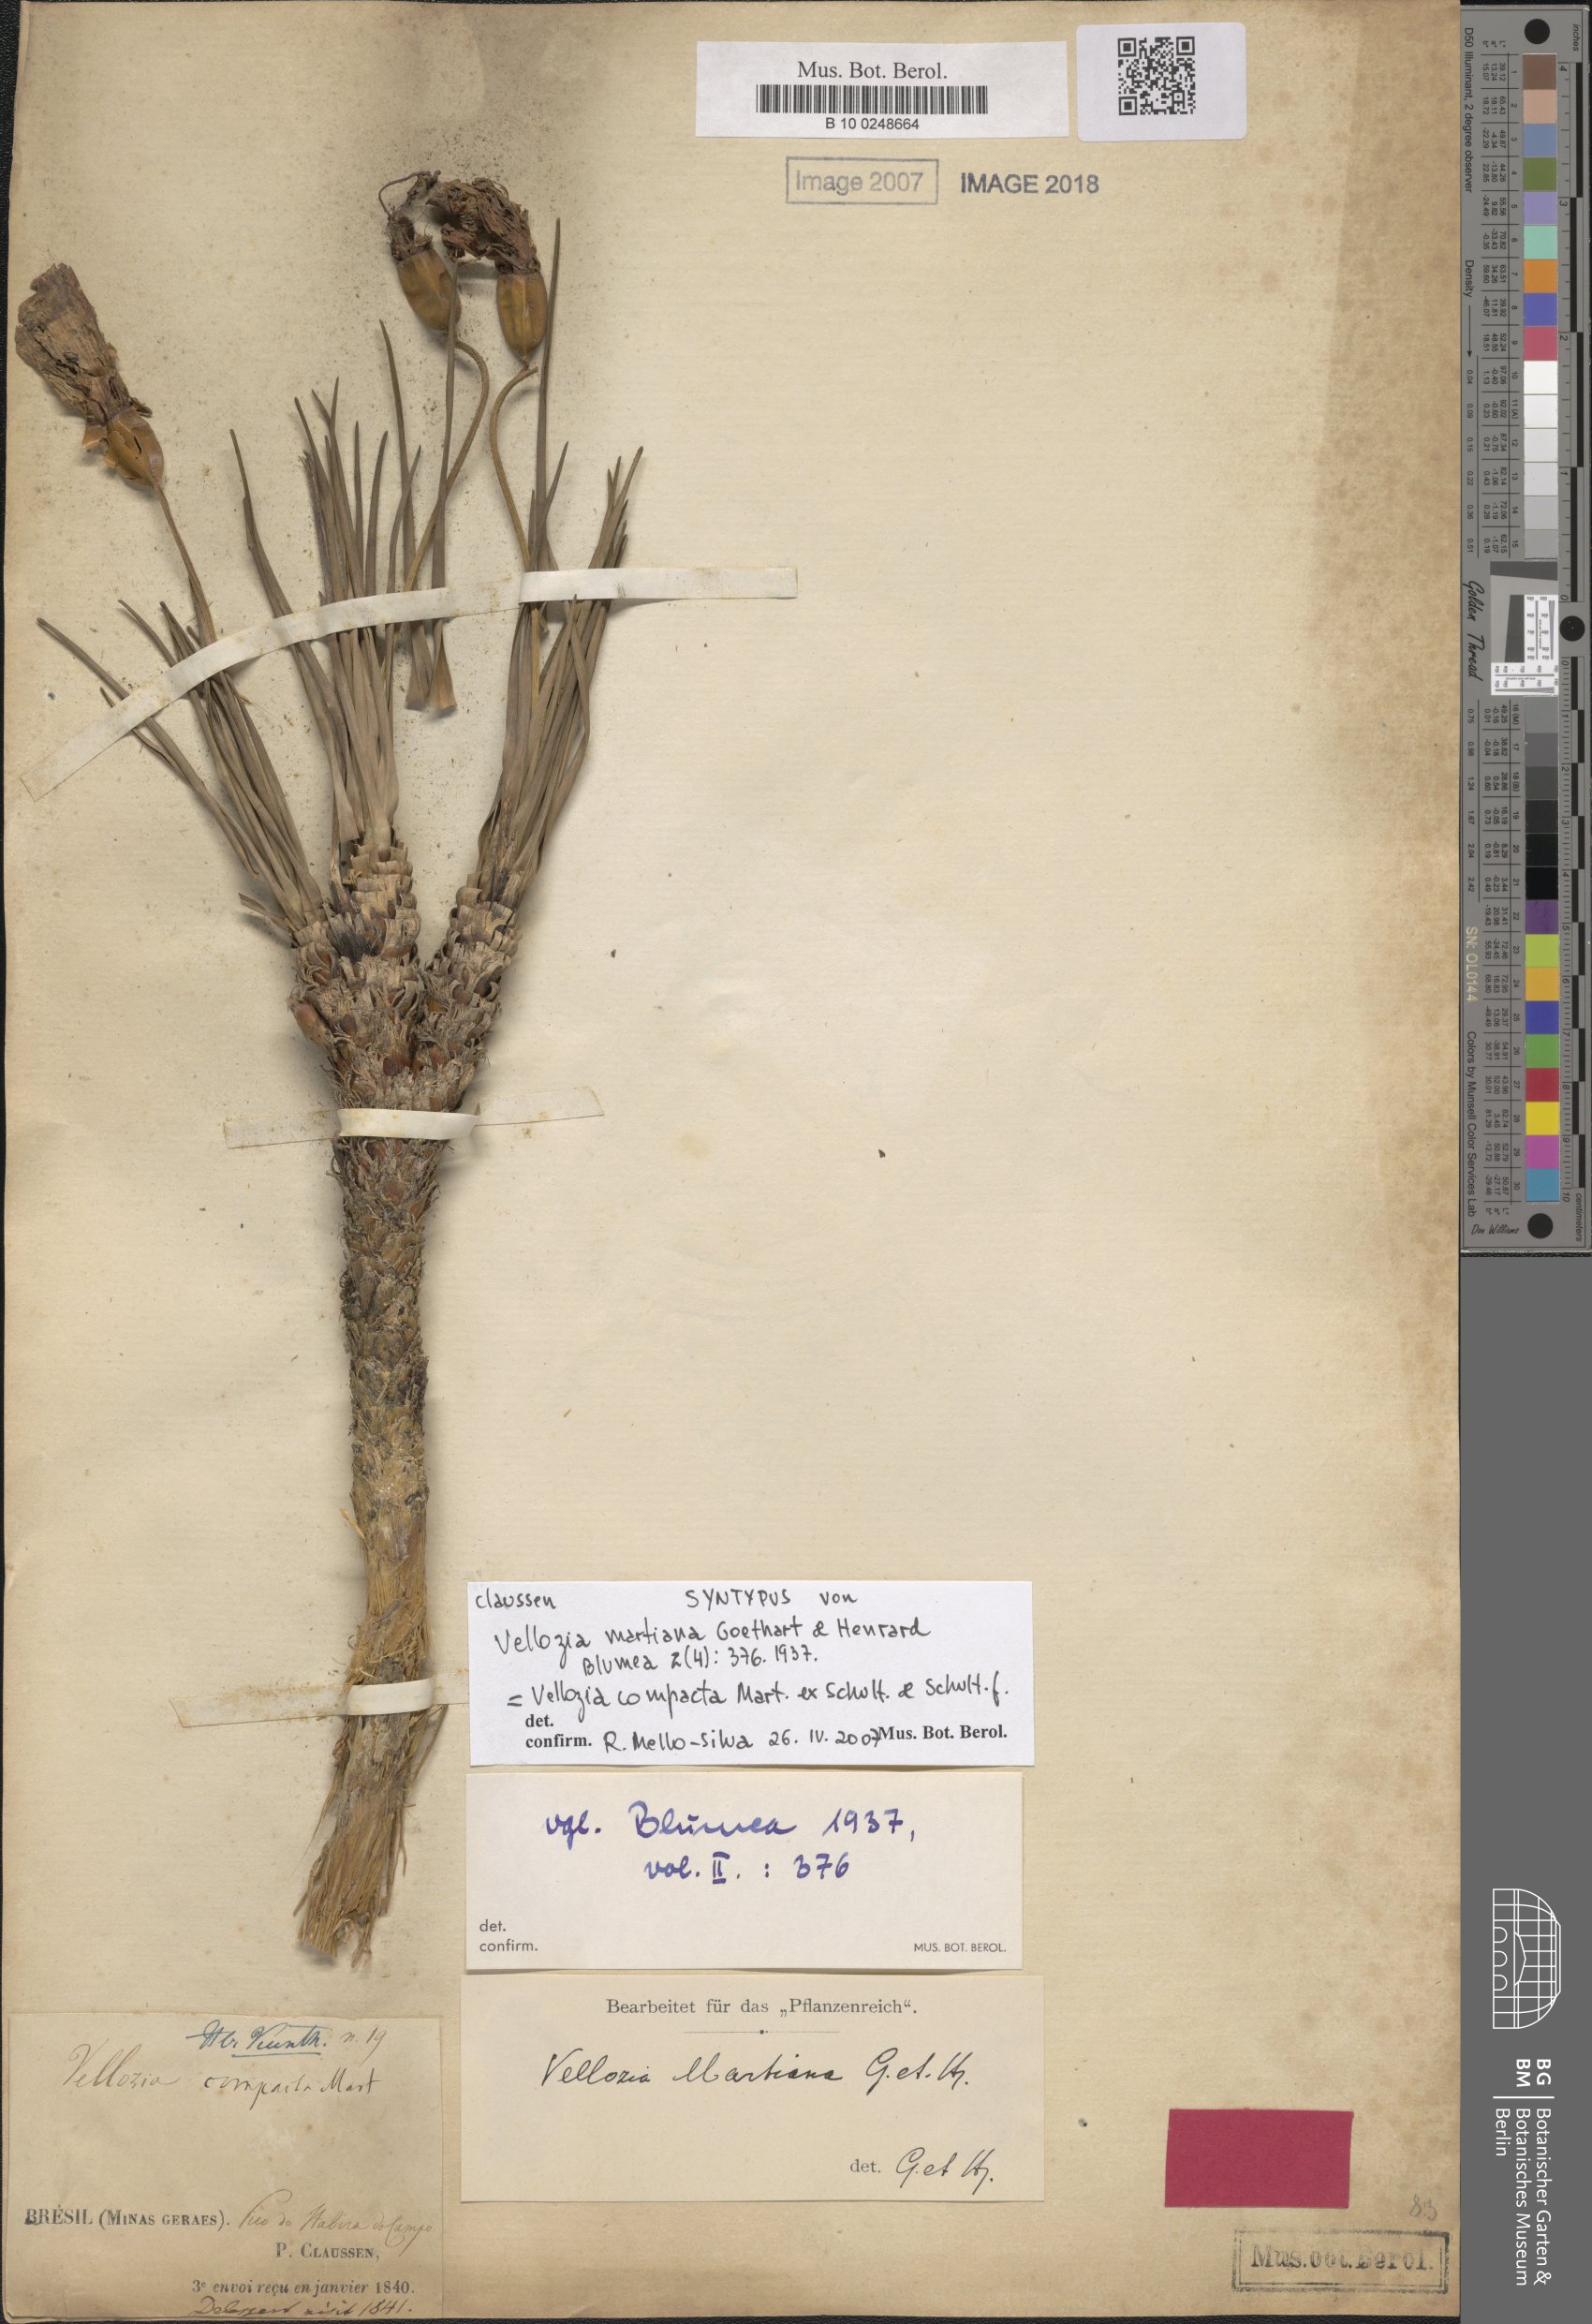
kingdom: Plantae
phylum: Tracheophyta
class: Liliopsida
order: Pandanales
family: Velloziaceae
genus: Vellozia
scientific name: Vellozia compacta
